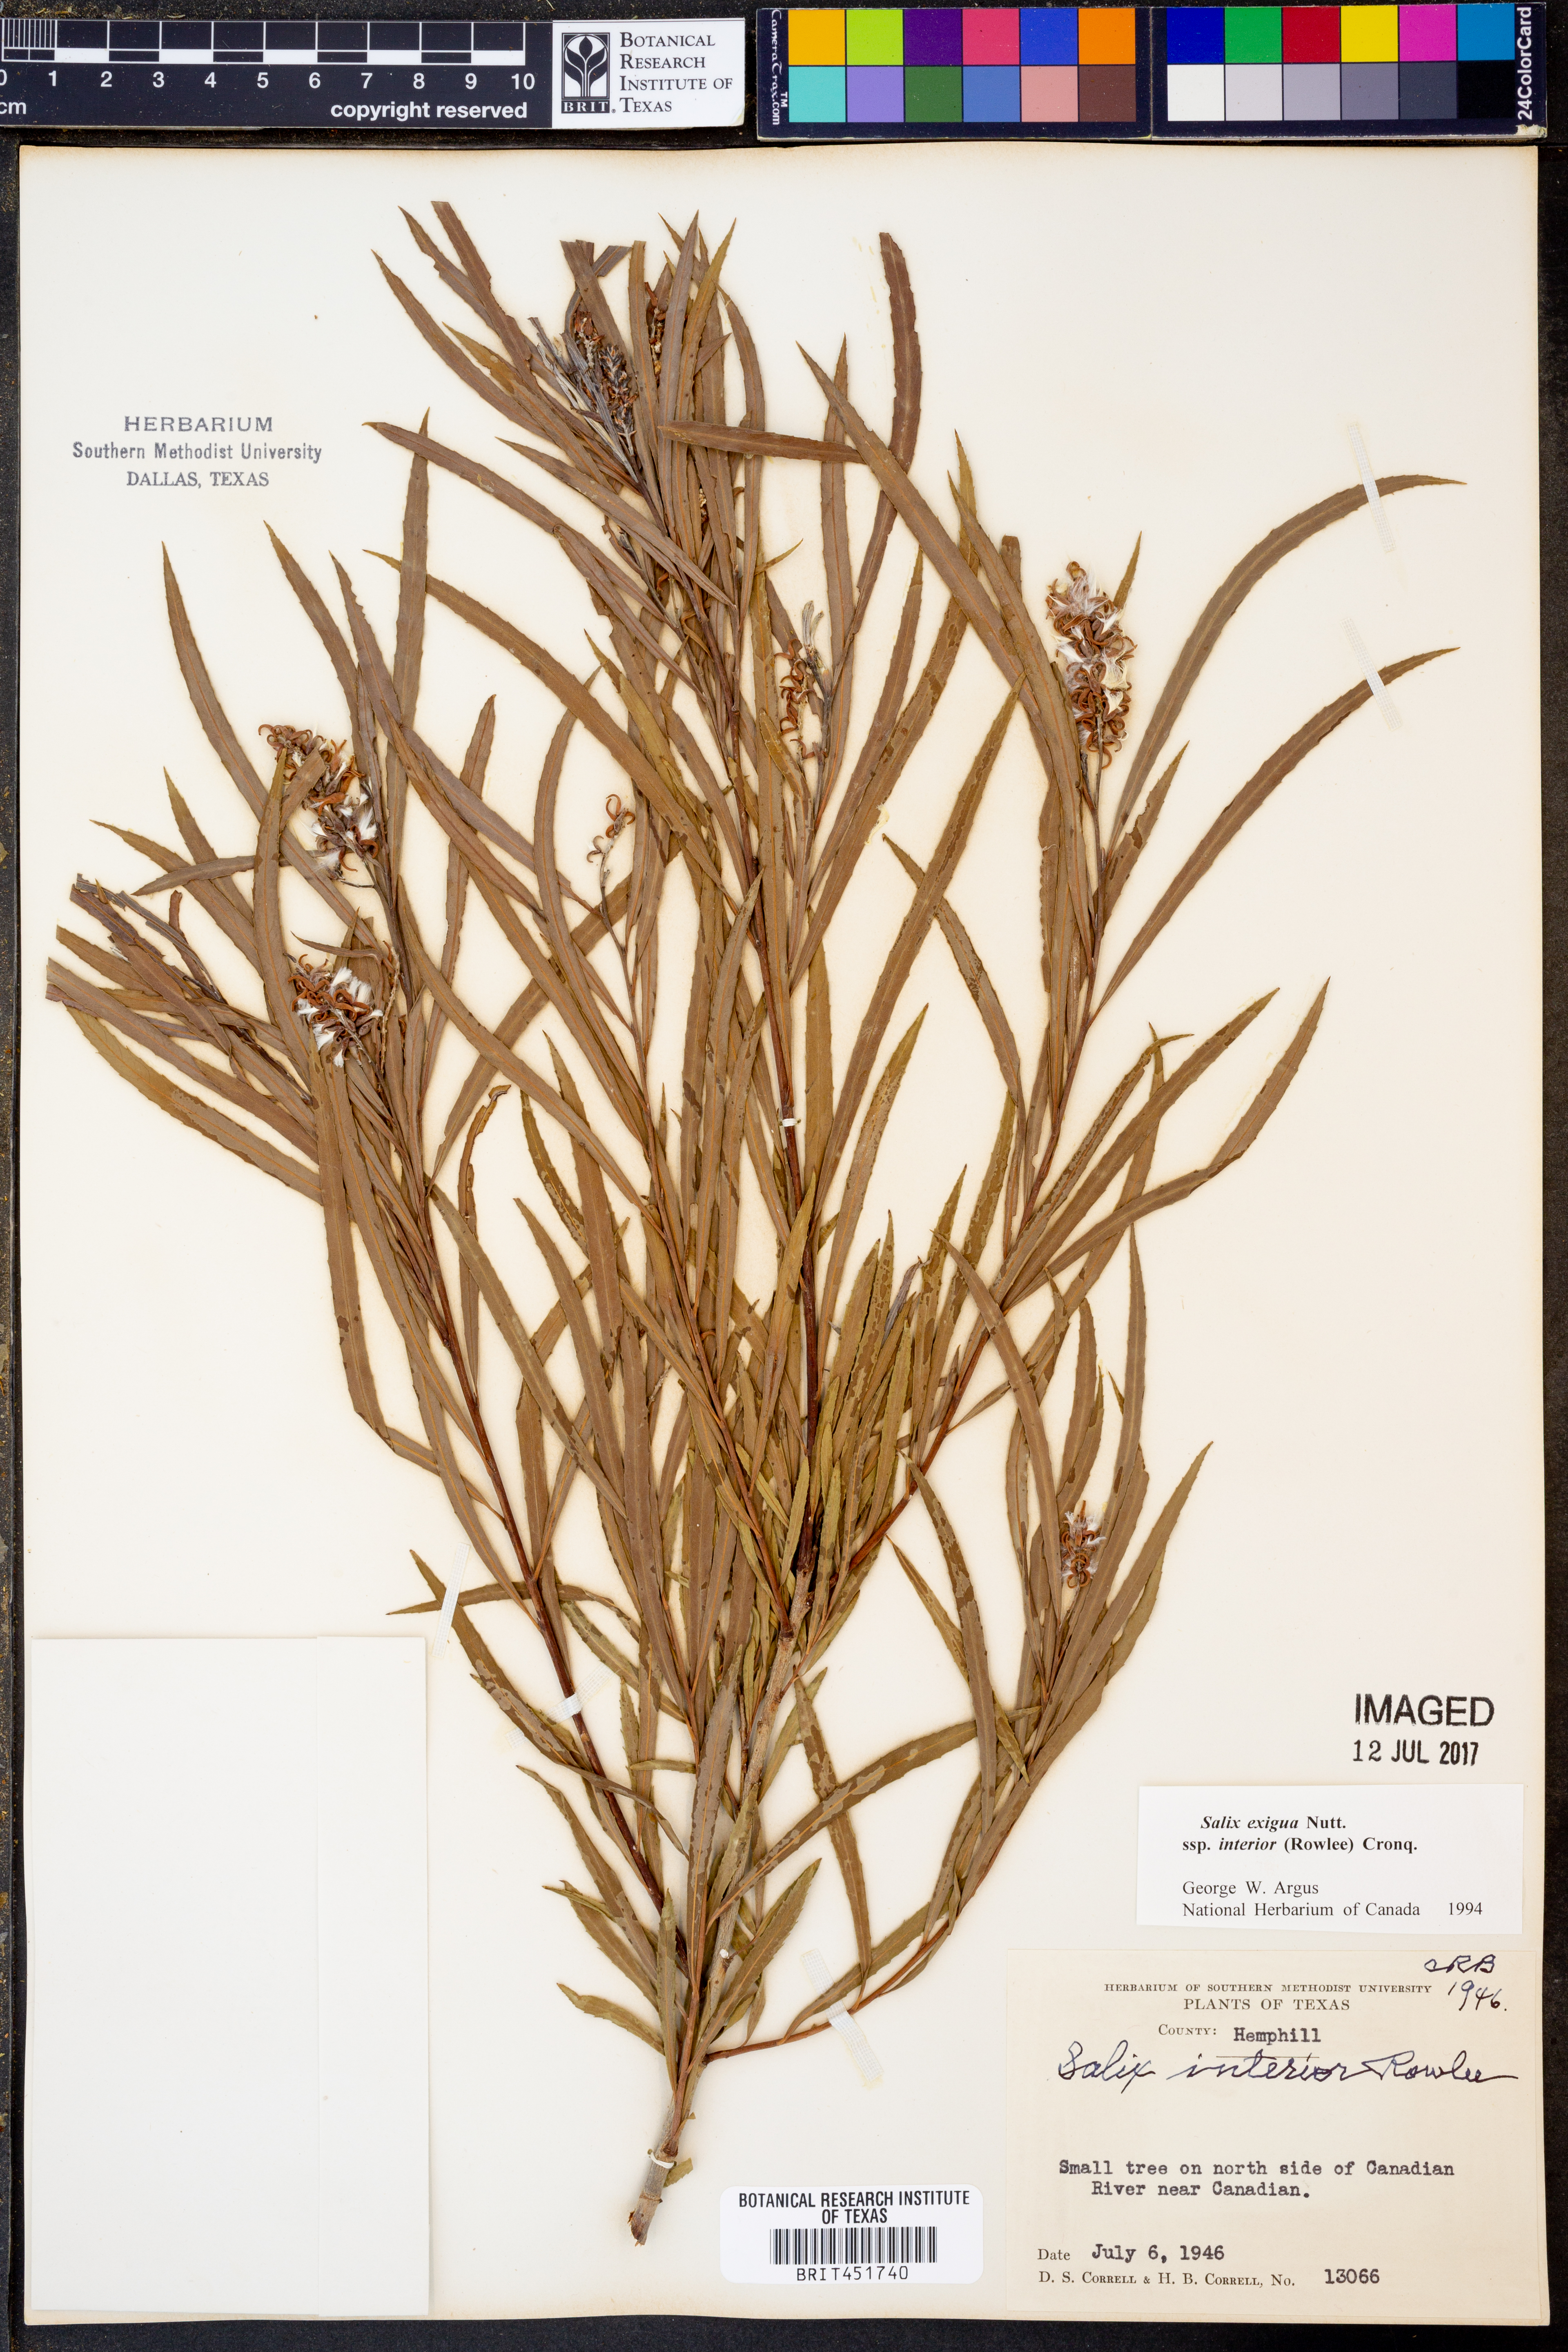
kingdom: Plantae
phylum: Tracheophyta
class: Magnoliopsida
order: Malpighiales
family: Salicaceae
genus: Salix
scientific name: Salix interior
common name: Sandbar willow
